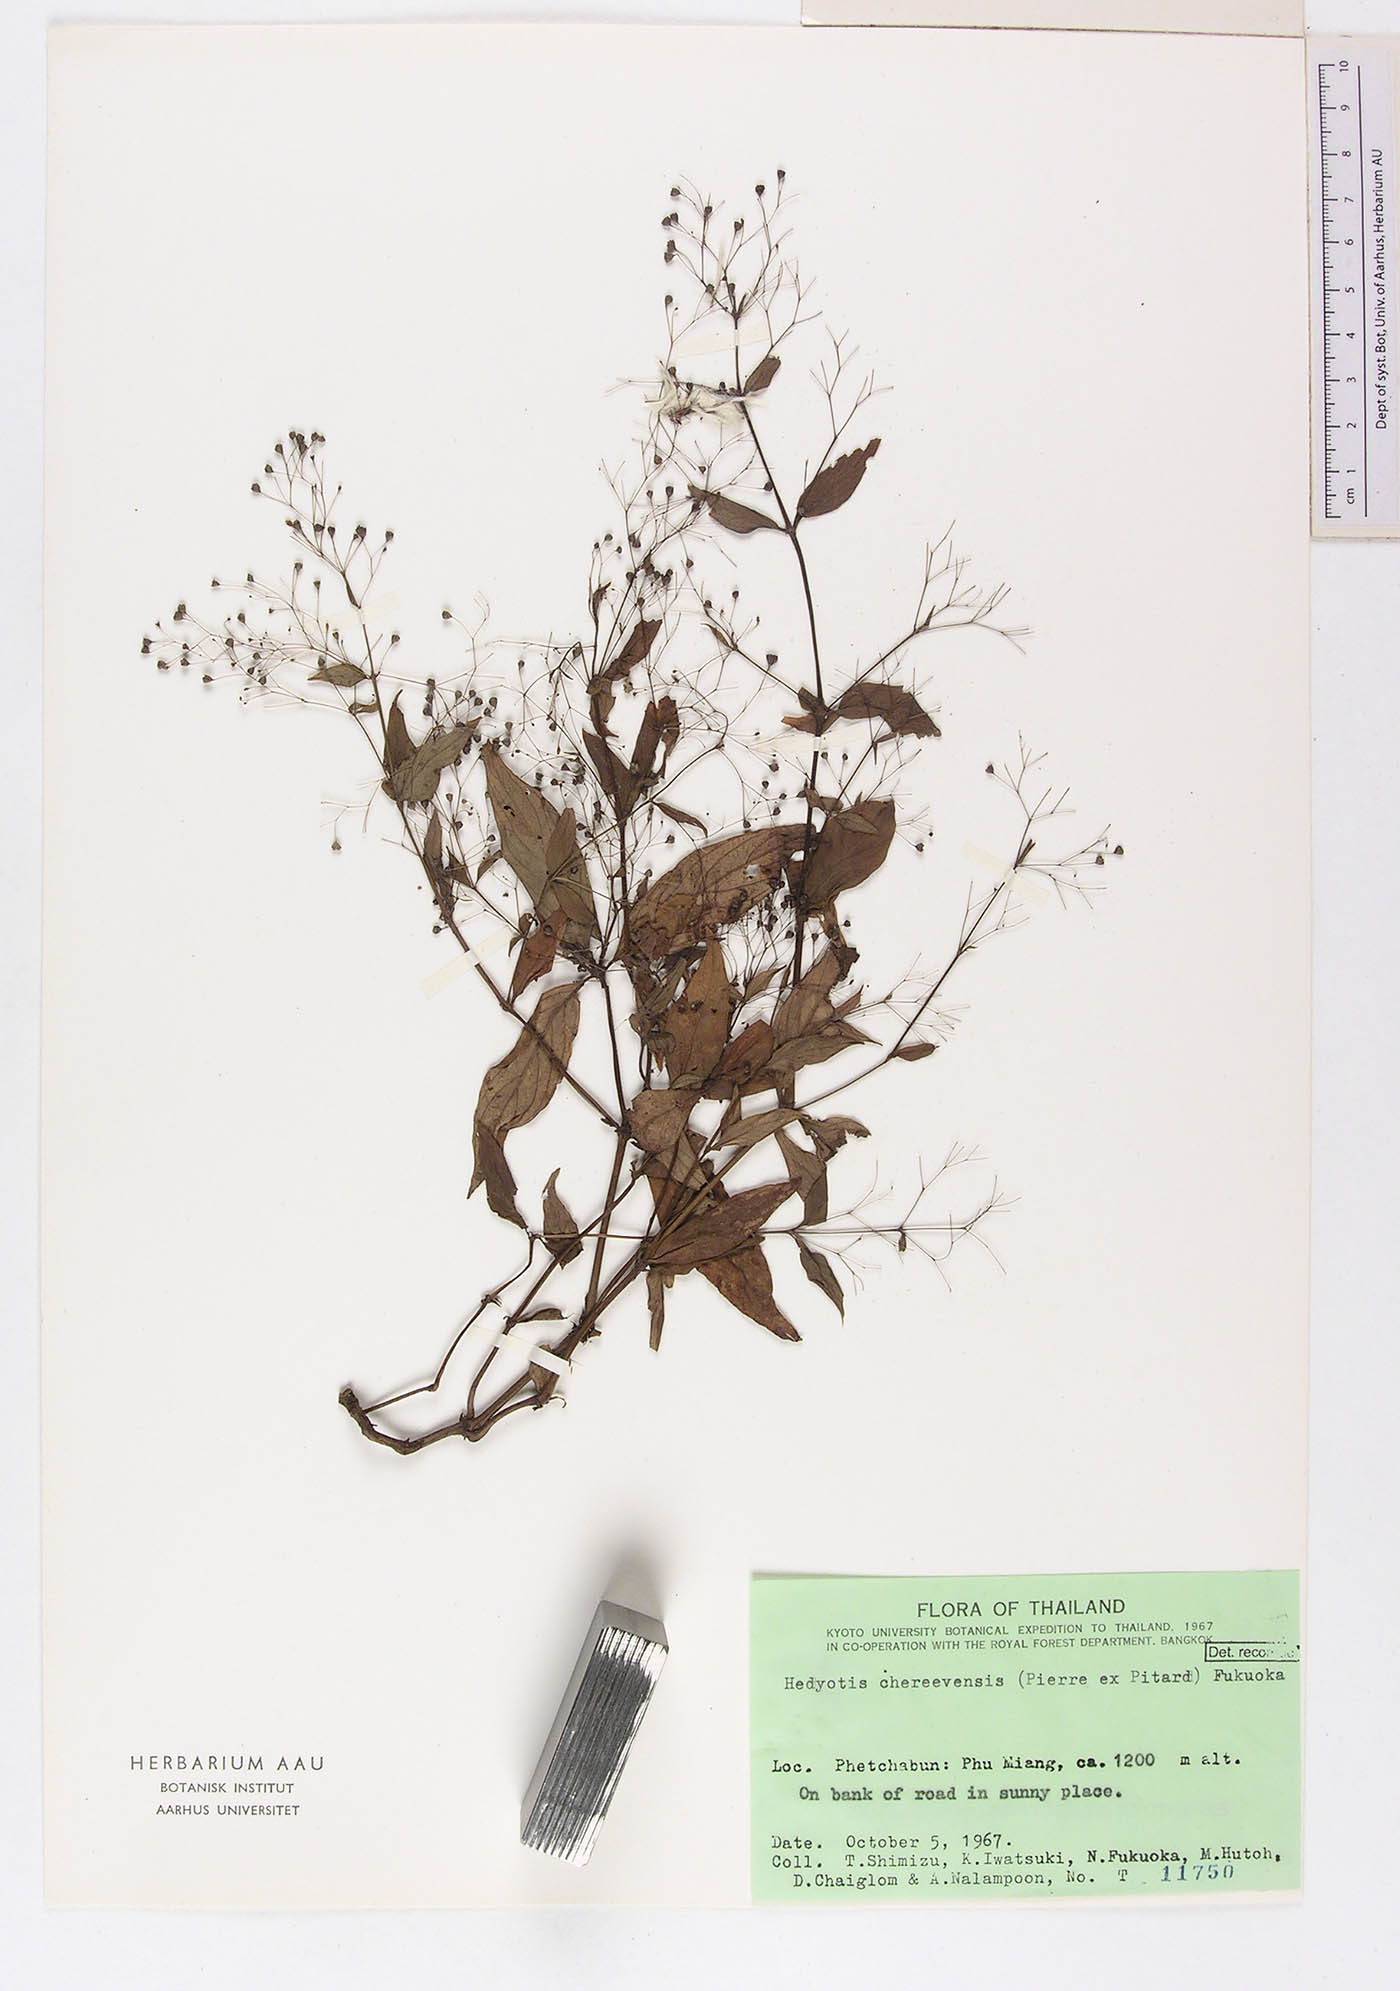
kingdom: Plantae
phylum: Tracheophyta
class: Magnoliopsida
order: Gentianales
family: Rubiaceae
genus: Involucrella
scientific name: Involucrella chereevensis
